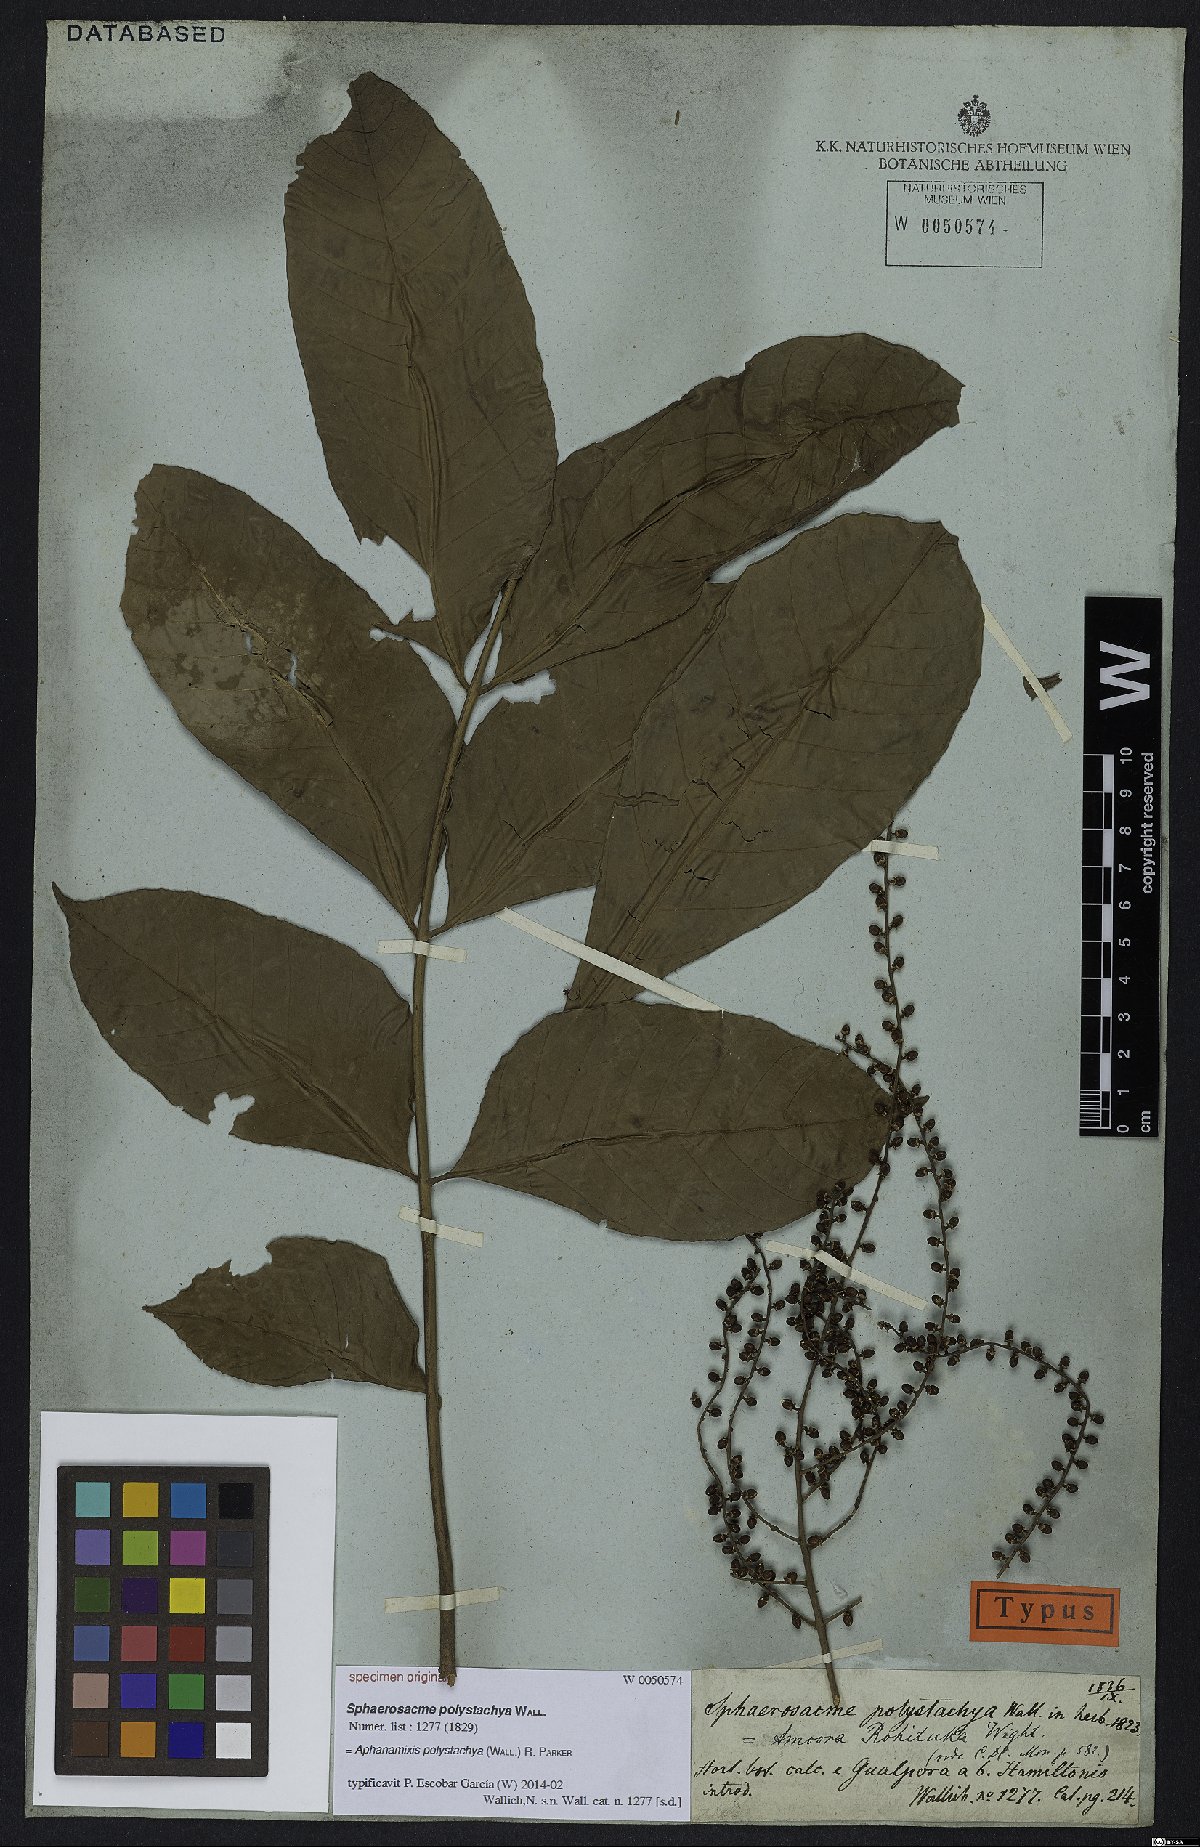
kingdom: Plantae
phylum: Tracheophyta
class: Magnoliopsida
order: Sapindales
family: Meliaceae
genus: Aphanamixis
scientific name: Aphanamixis polystachya
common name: Pithraj tree
